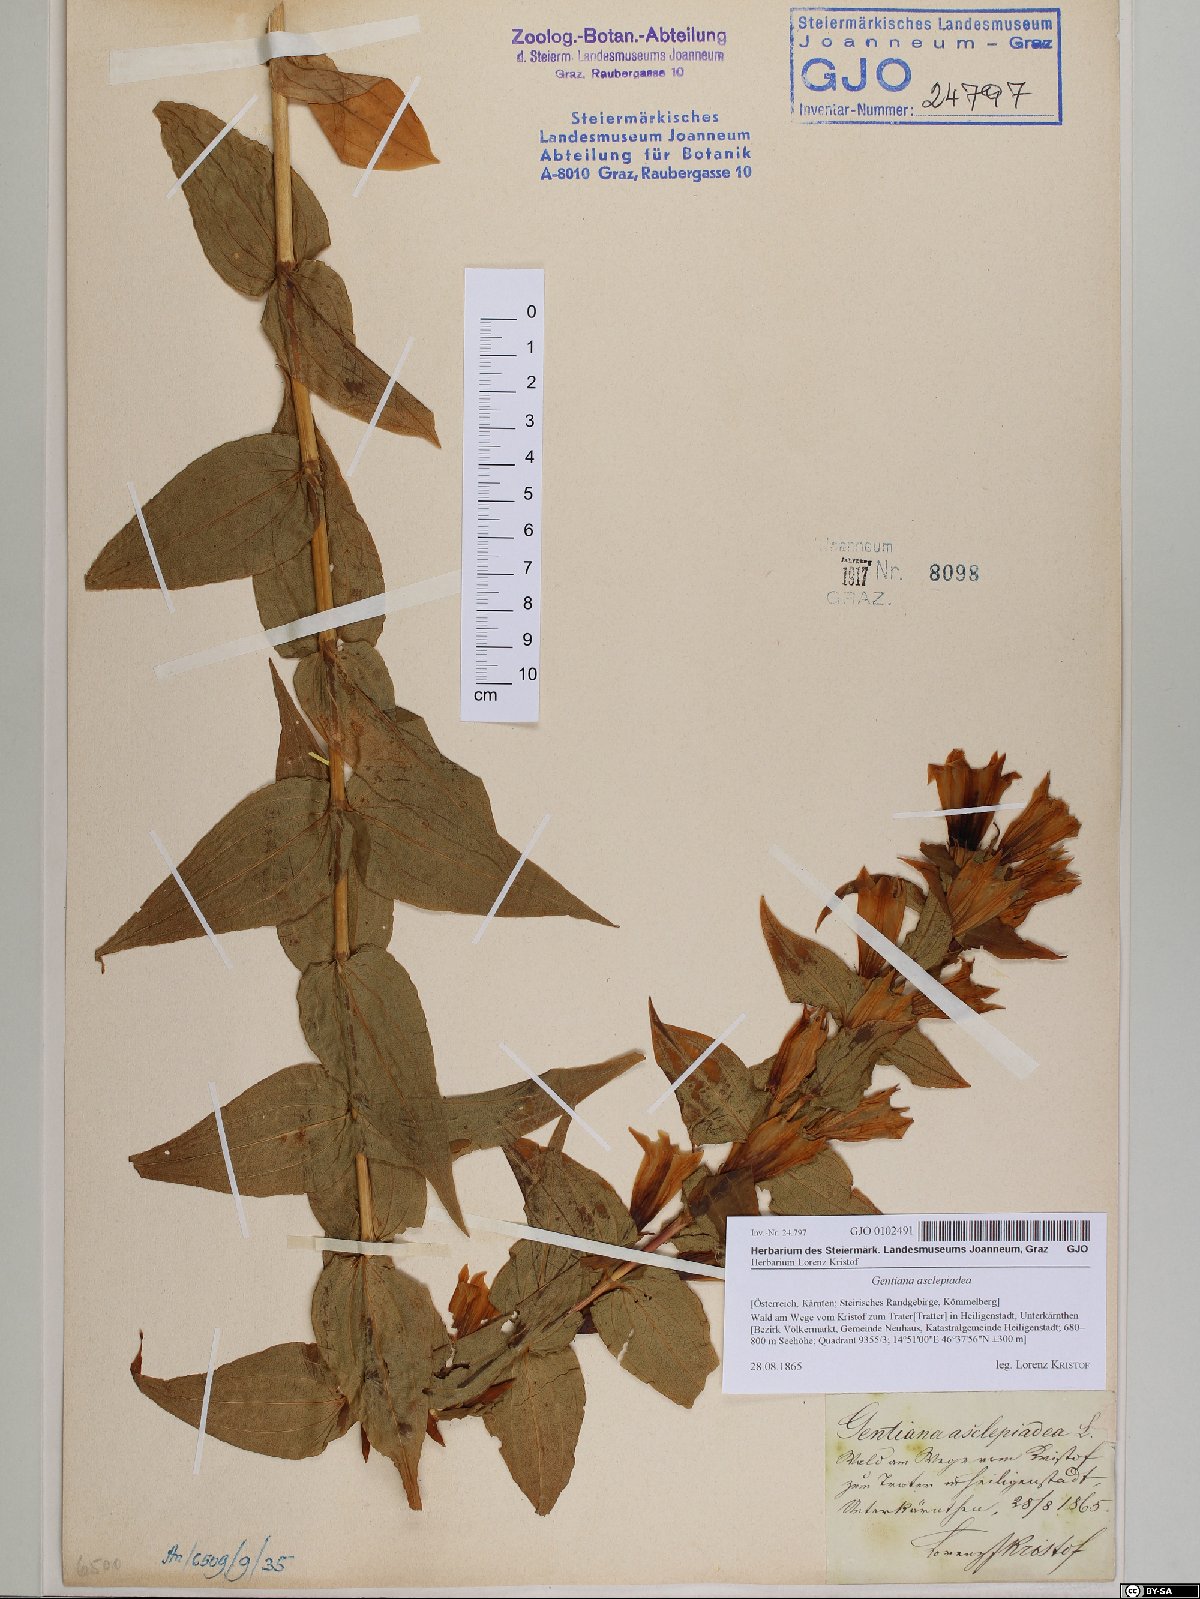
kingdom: Plantae
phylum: Tracheophyta
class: Magnoliopsida
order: Gentianales
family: Gentianaceae
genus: Gentiana
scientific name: Gentiana asclepiadea
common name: Willow gentian
